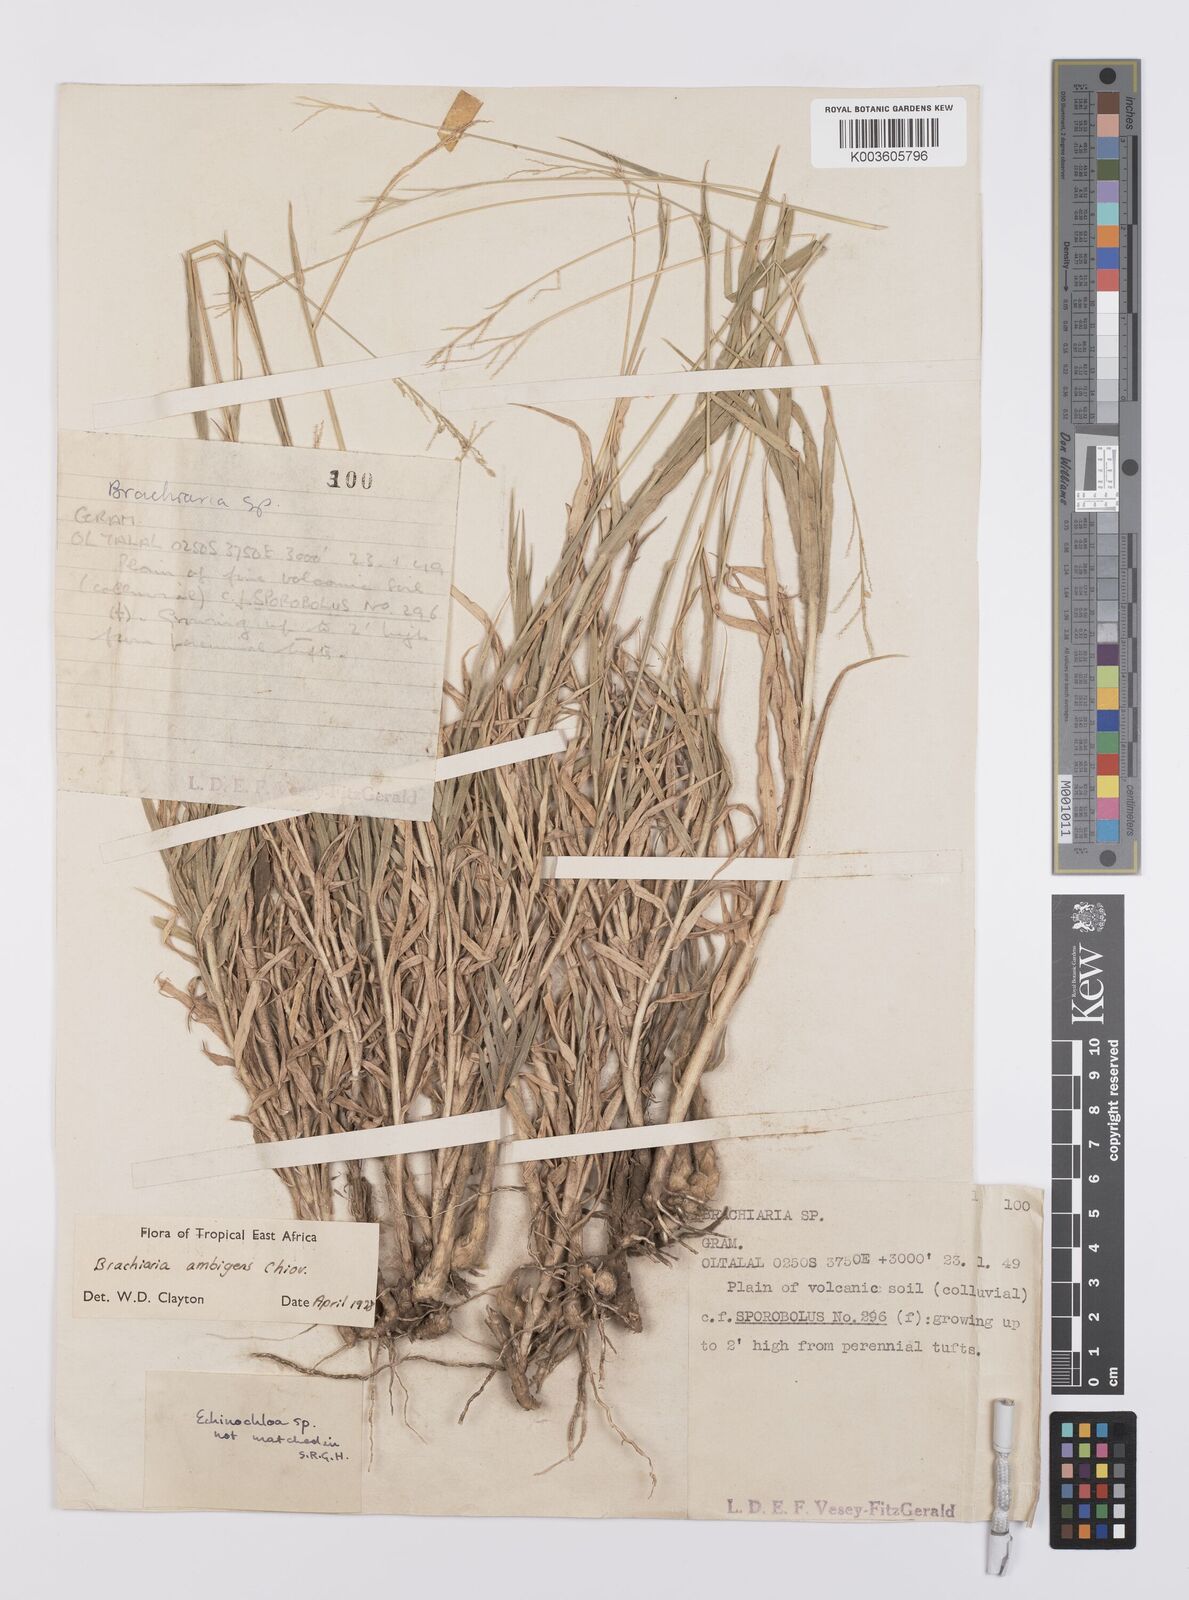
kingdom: Plantae
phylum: Tracheophyta
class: Liliopsida
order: Poales
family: Poaceae
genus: Urochloa
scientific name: Urochloa Brachiaria ambigens
